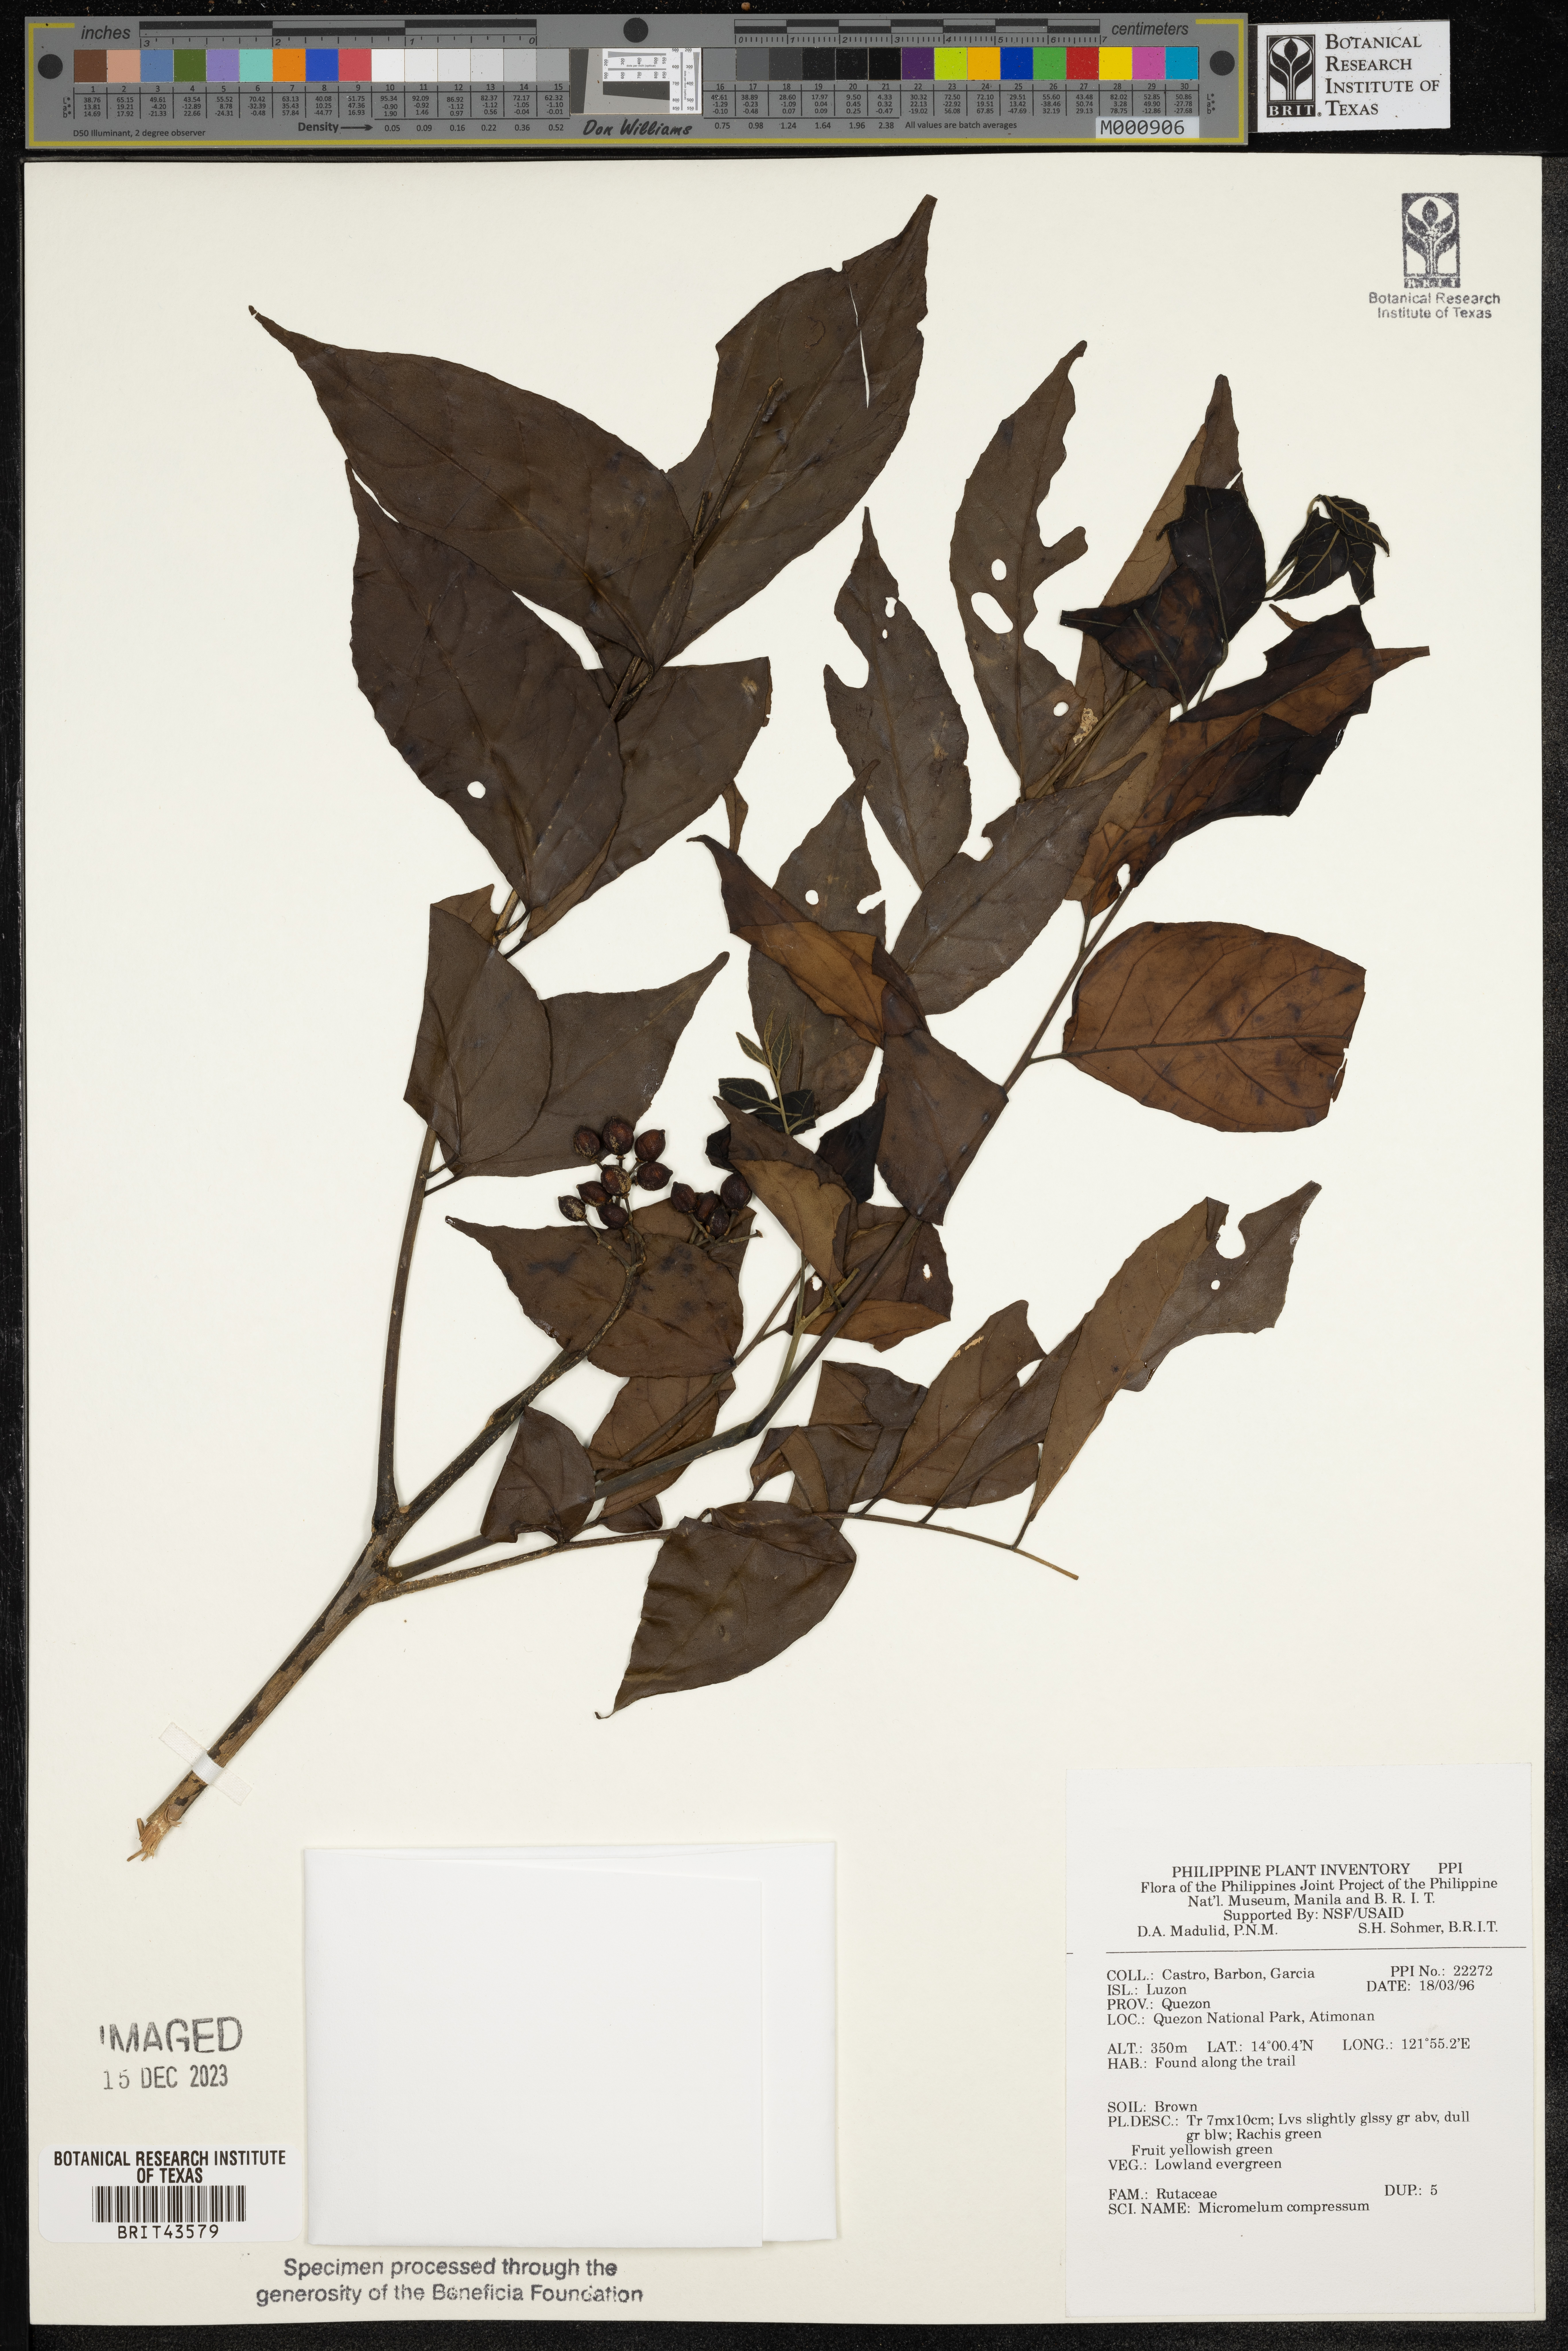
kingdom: Plantae
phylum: Tracheophyta
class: Magnoliopsida
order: Sapindales
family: Rutaceae
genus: Micromelum
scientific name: Micromelum compressum
